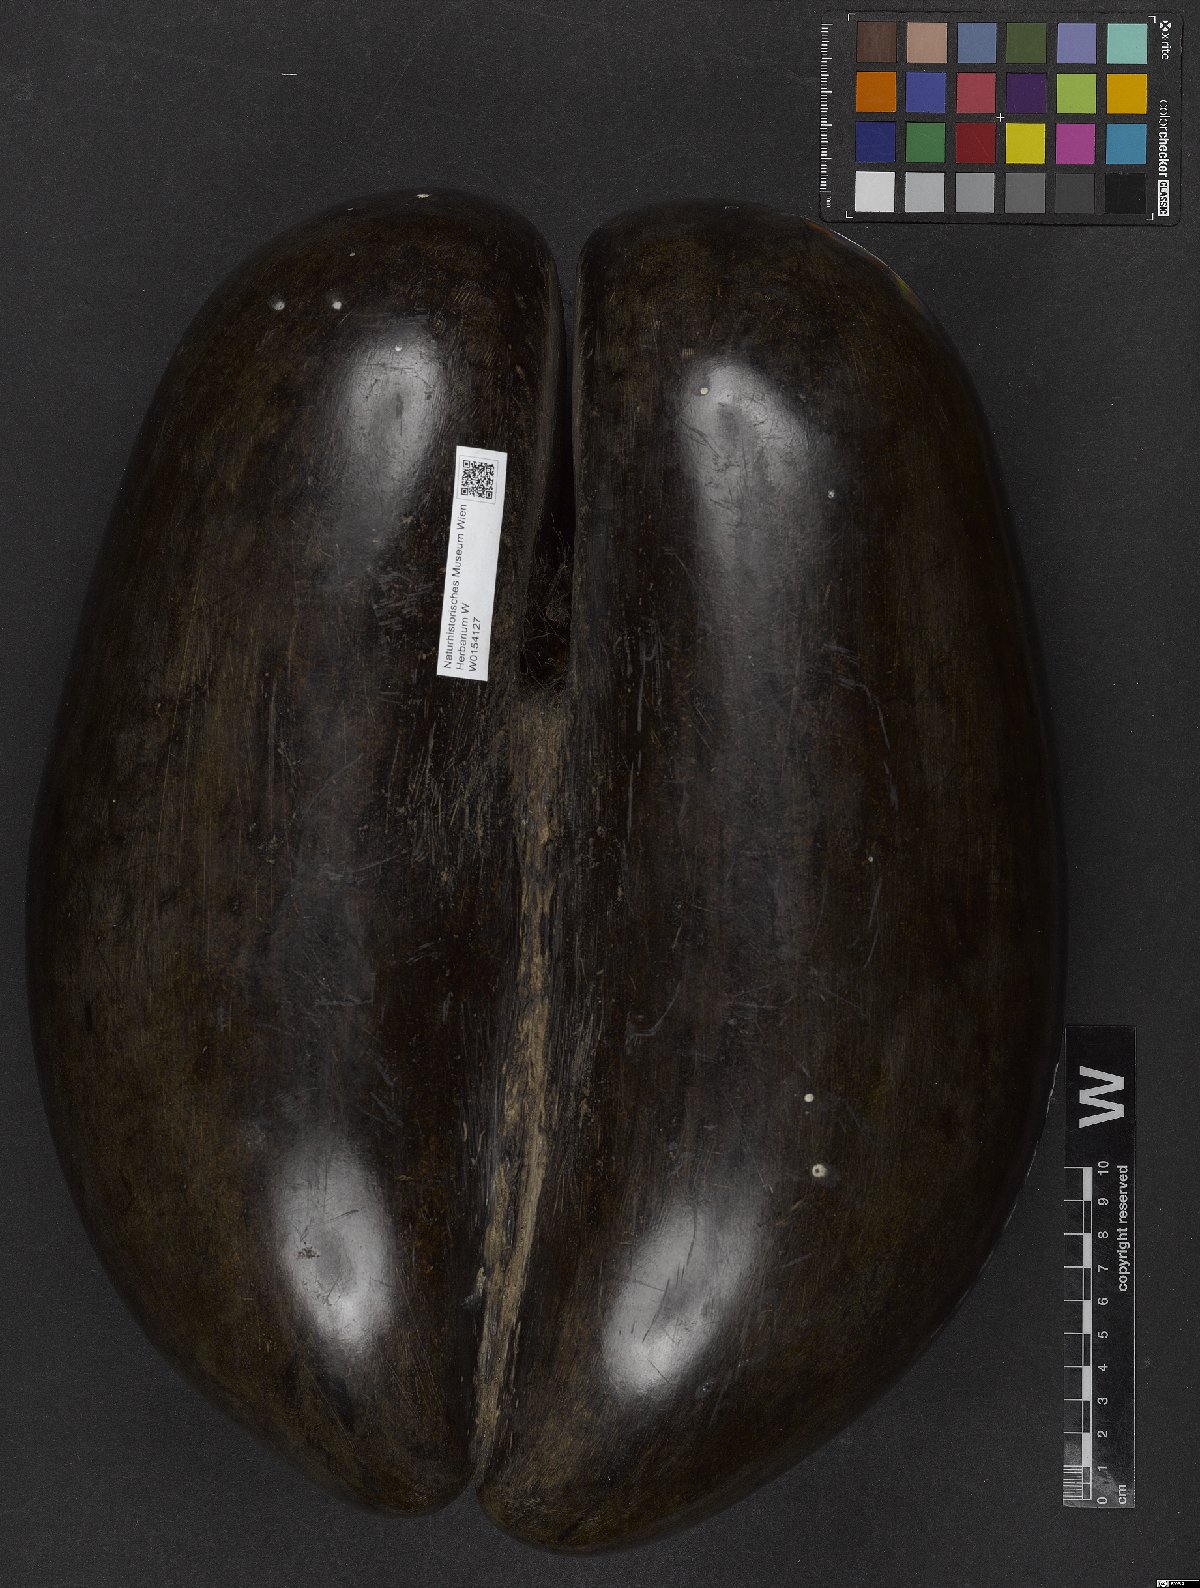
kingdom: Plantae
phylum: Tracheophyta
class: Liliopsida
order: Arecales
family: Arecaceae
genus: Lodoicea
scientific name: Lodoicea maldivica
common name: Double coconut palm
